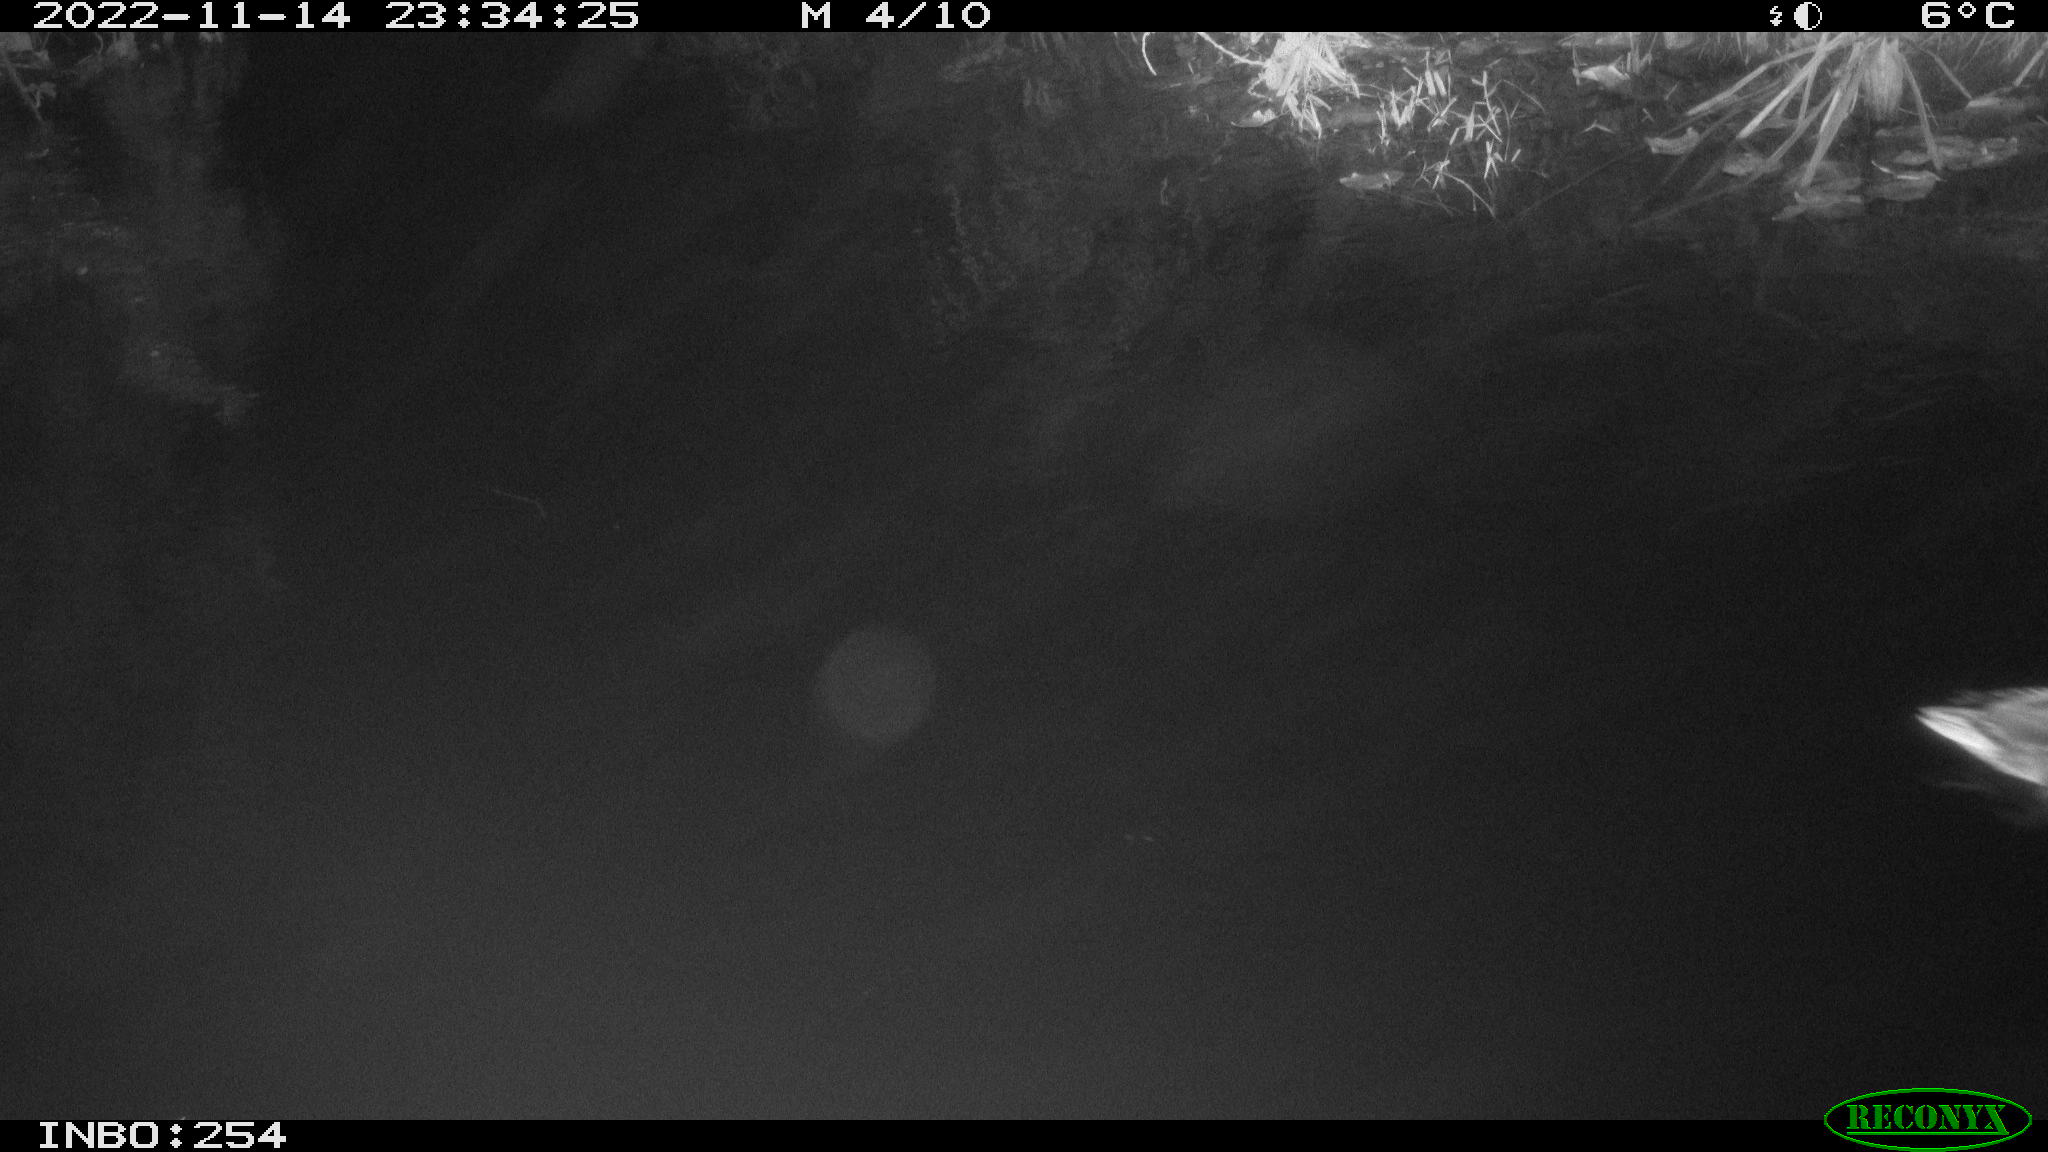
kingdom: Animalia
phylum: Chordata
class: Aves
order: Anseriformes
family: Anatidae
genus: Anas
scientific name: Anas
